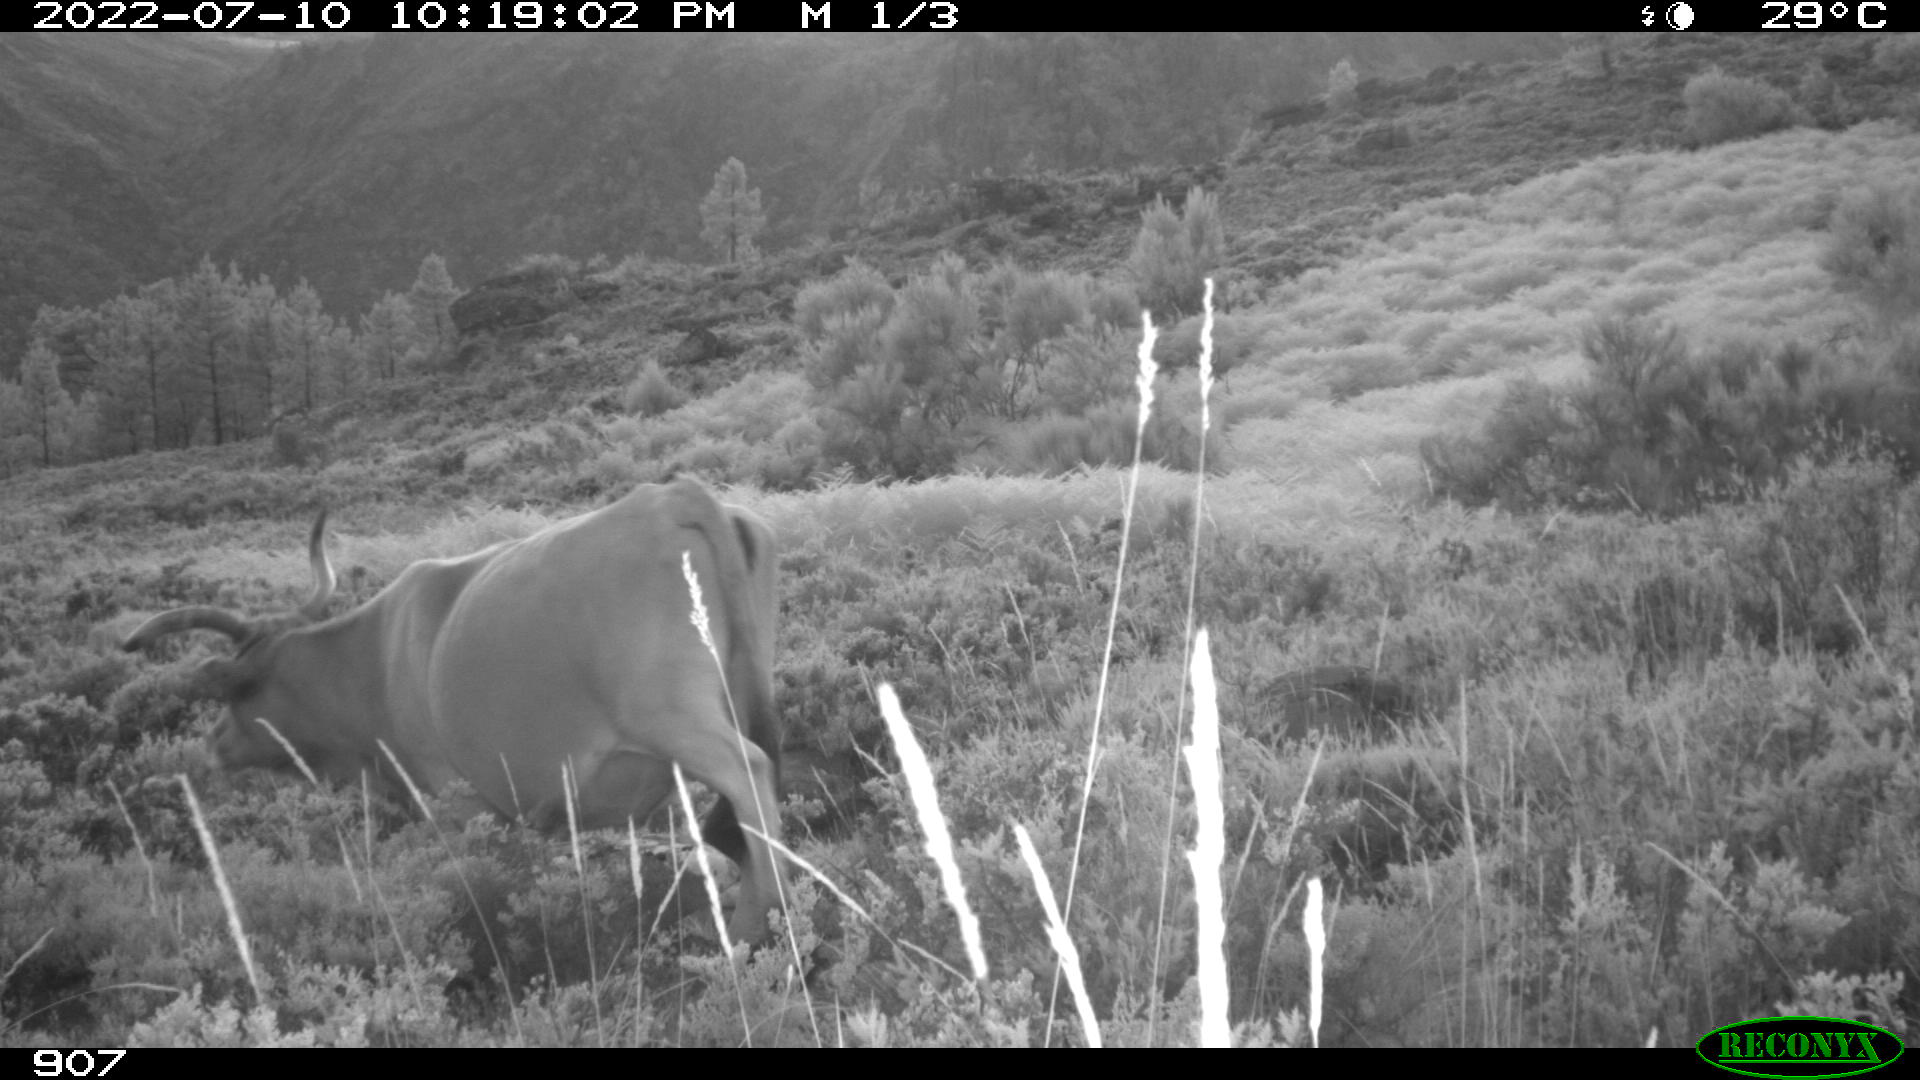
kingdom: Animalia
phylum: Chordata
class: Mammalia
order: Artiodactyla
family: Bovidae
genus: Bos
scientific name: Bos taurus
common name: Domesticated cattle
